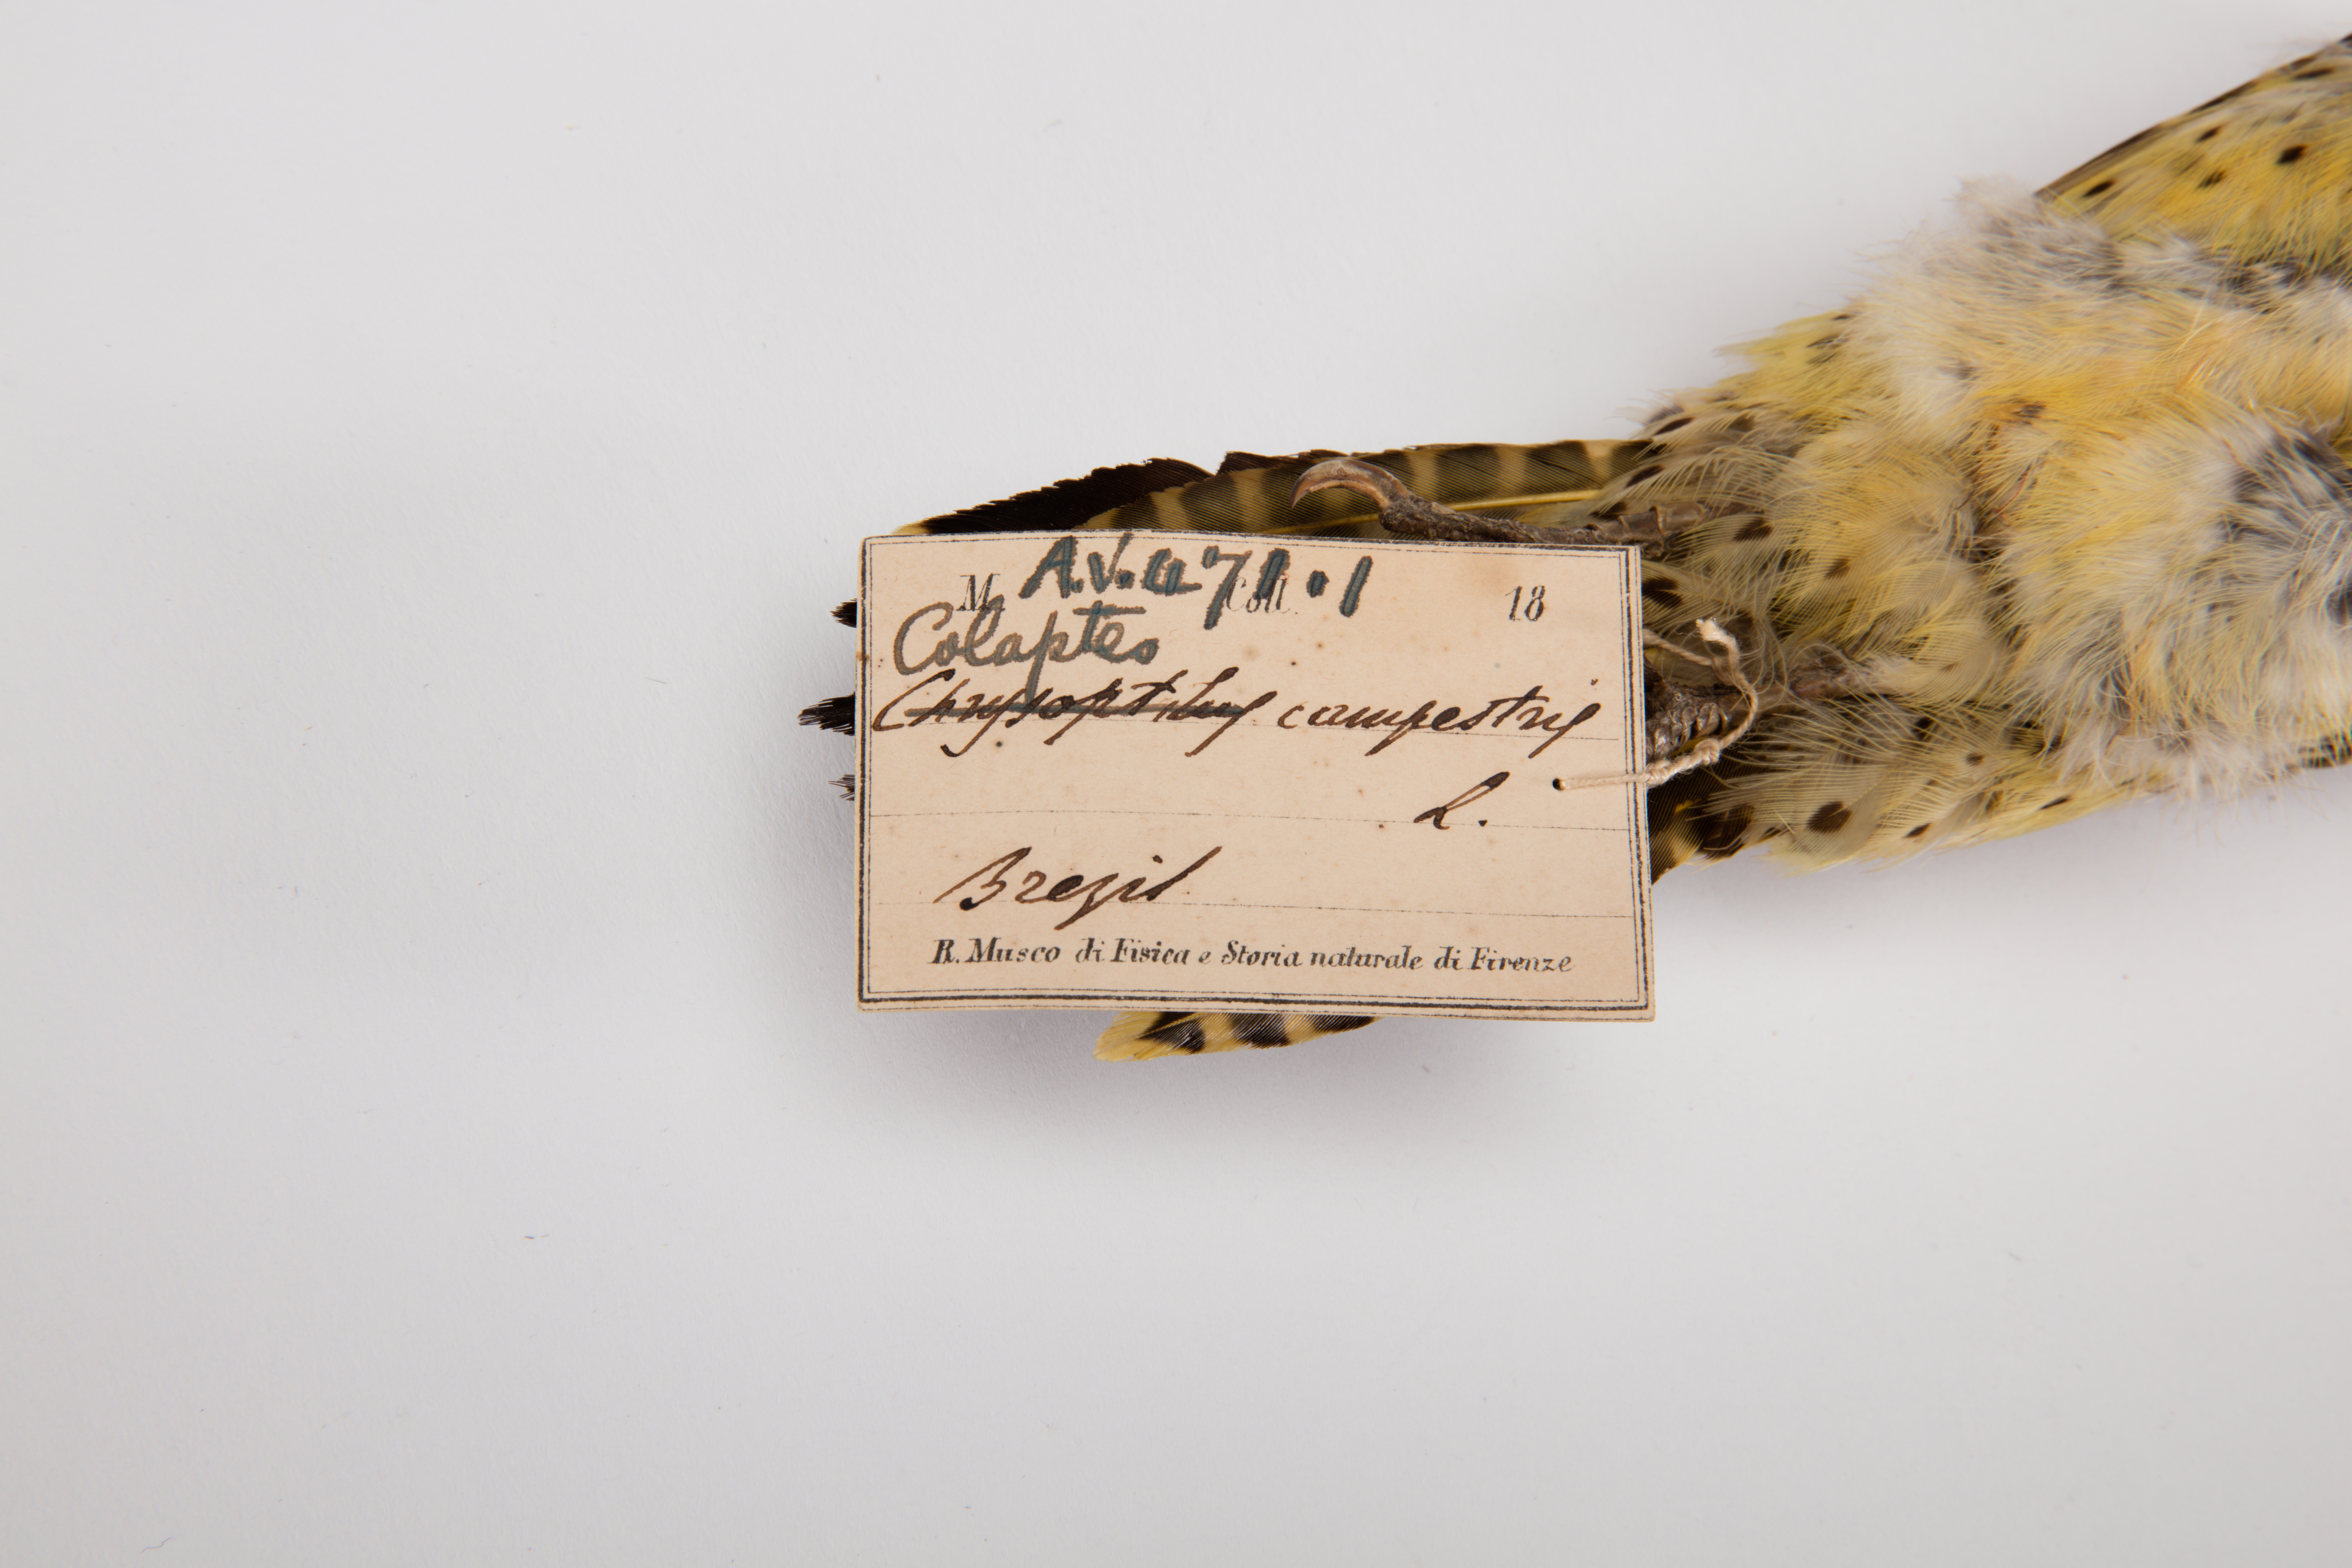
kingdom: Animalia
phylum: Chordata
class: Aves
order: Piciformes
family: Picidae
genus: Colaptes
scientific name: Colaptes campestris
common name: Campo flicker
